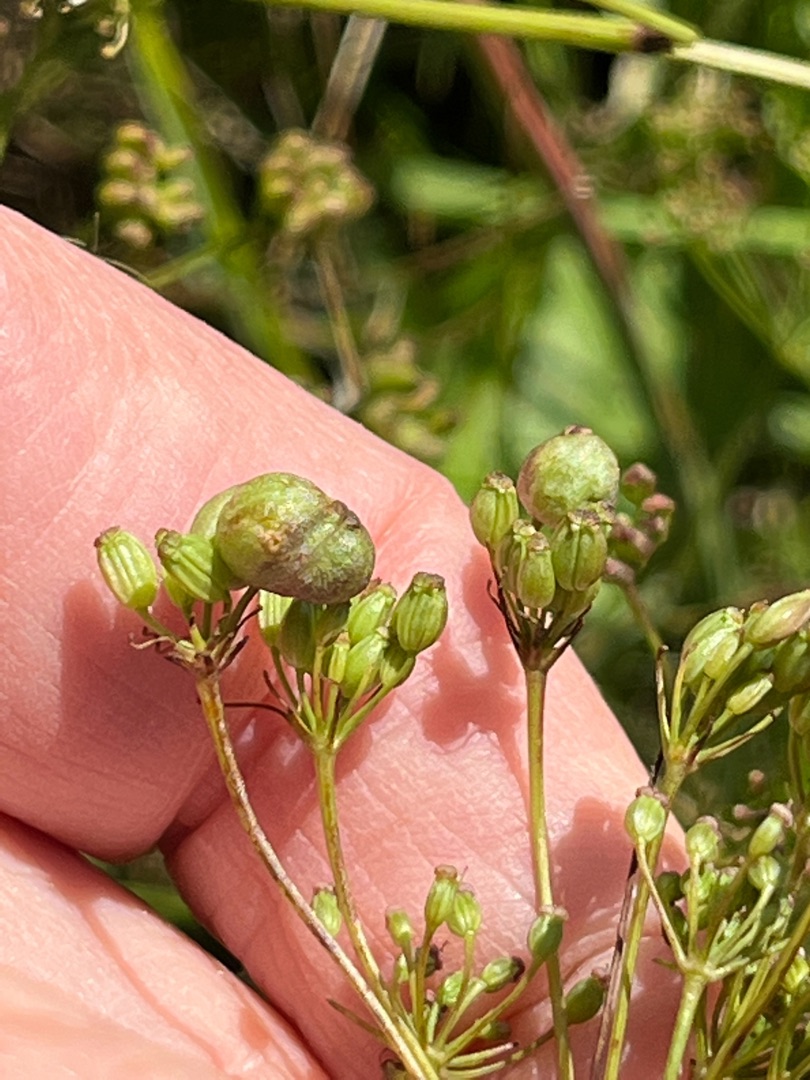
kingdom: Animalia
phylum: Arthropoda
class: Insecta
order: Diptera
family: Cecidomyiidae
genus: Kiefferia
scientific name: Kiefferia pericarpiicola
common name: Gulerodsgalmyg
